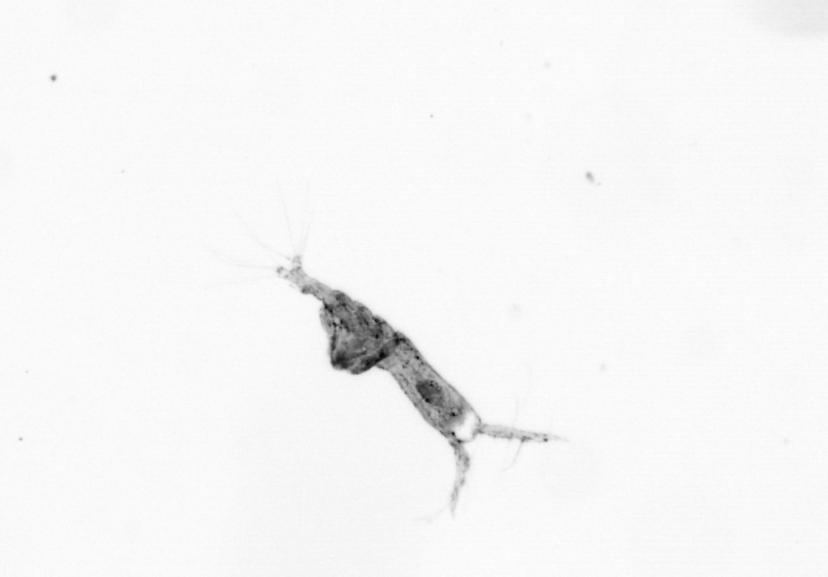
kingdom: Animalia
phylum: Arthropoda
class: Copepoda
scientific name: Copepoda
